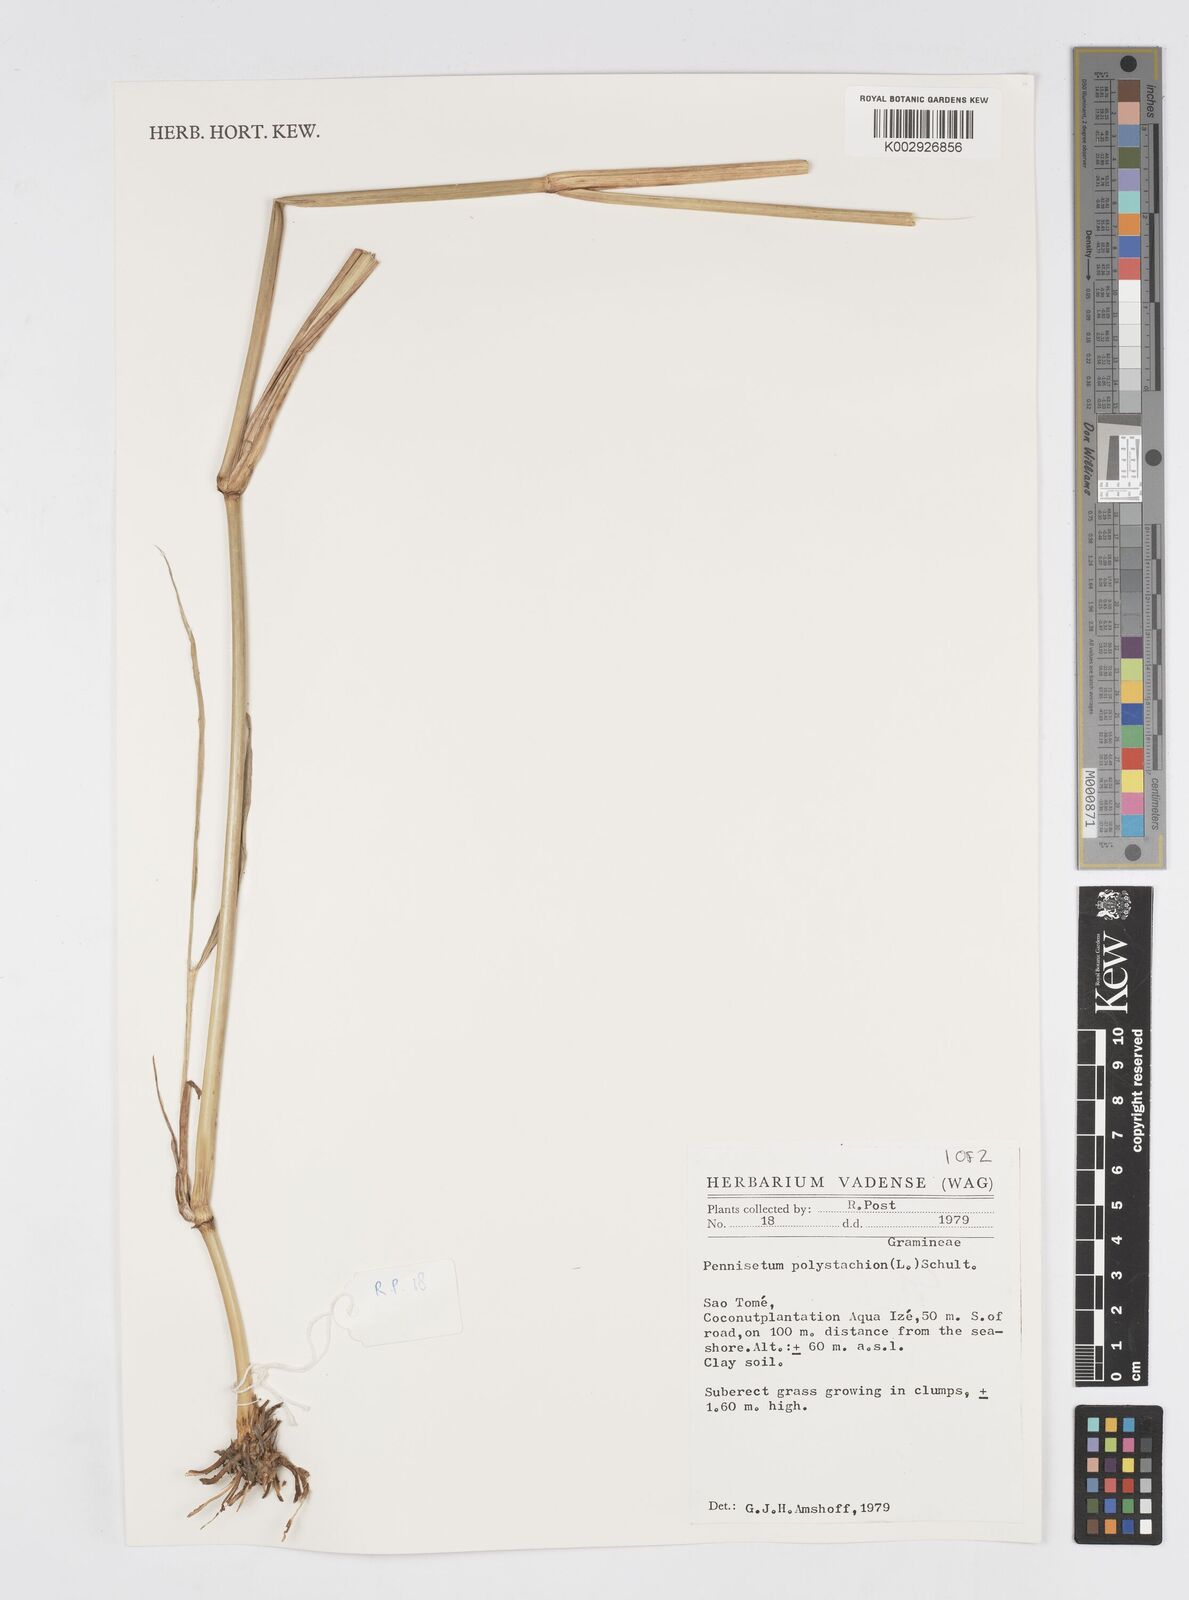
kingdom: Plantae
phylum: Tracheophyta
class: Liliopsida
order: Poales
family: Poaceae
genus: Cenchrus
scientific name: Cenchrus setosus
